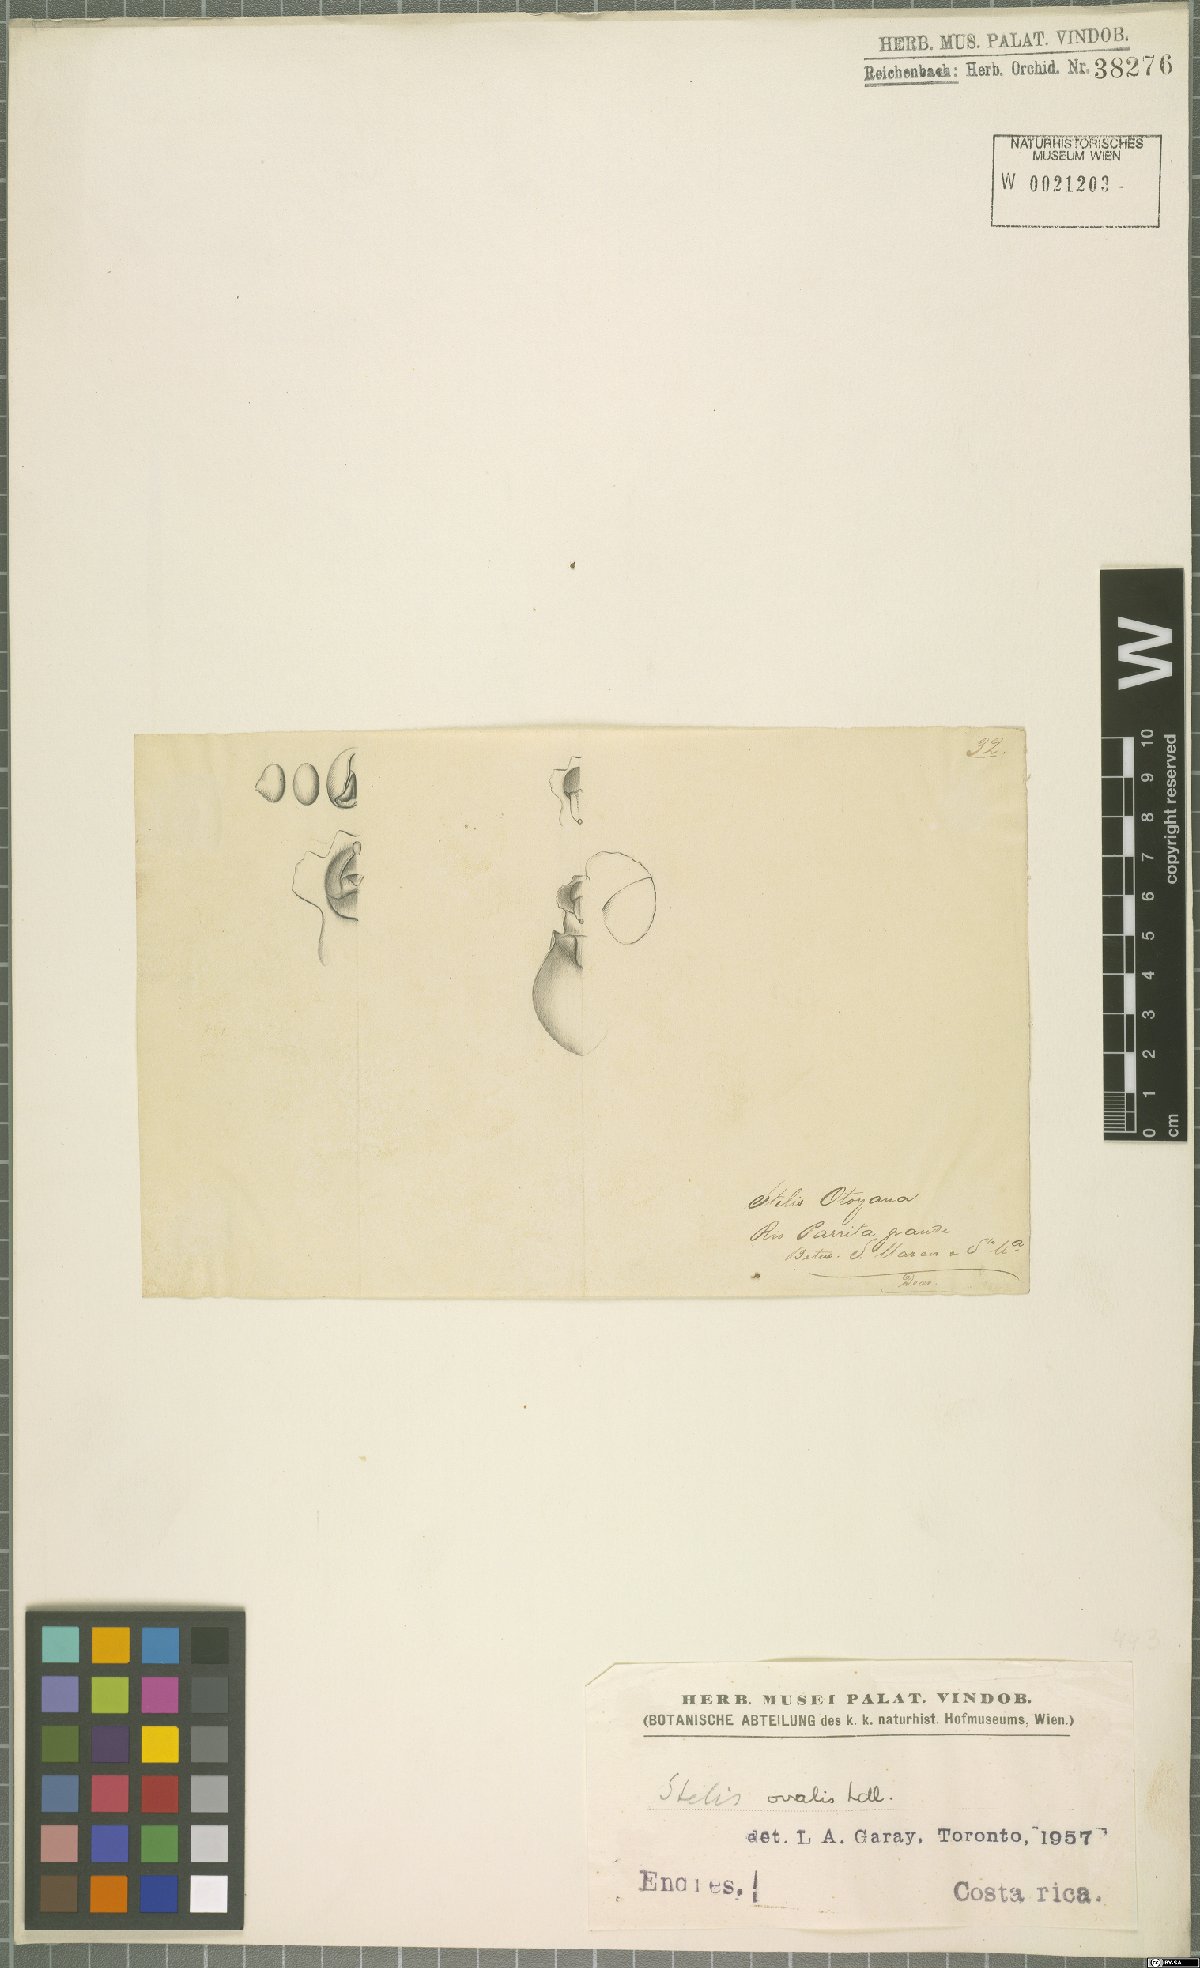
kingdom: Plantae
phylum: Tracheophyta
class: Liliopsida
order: Asparagales
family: Orchidaceae
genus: Stelis
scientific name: Stelis
